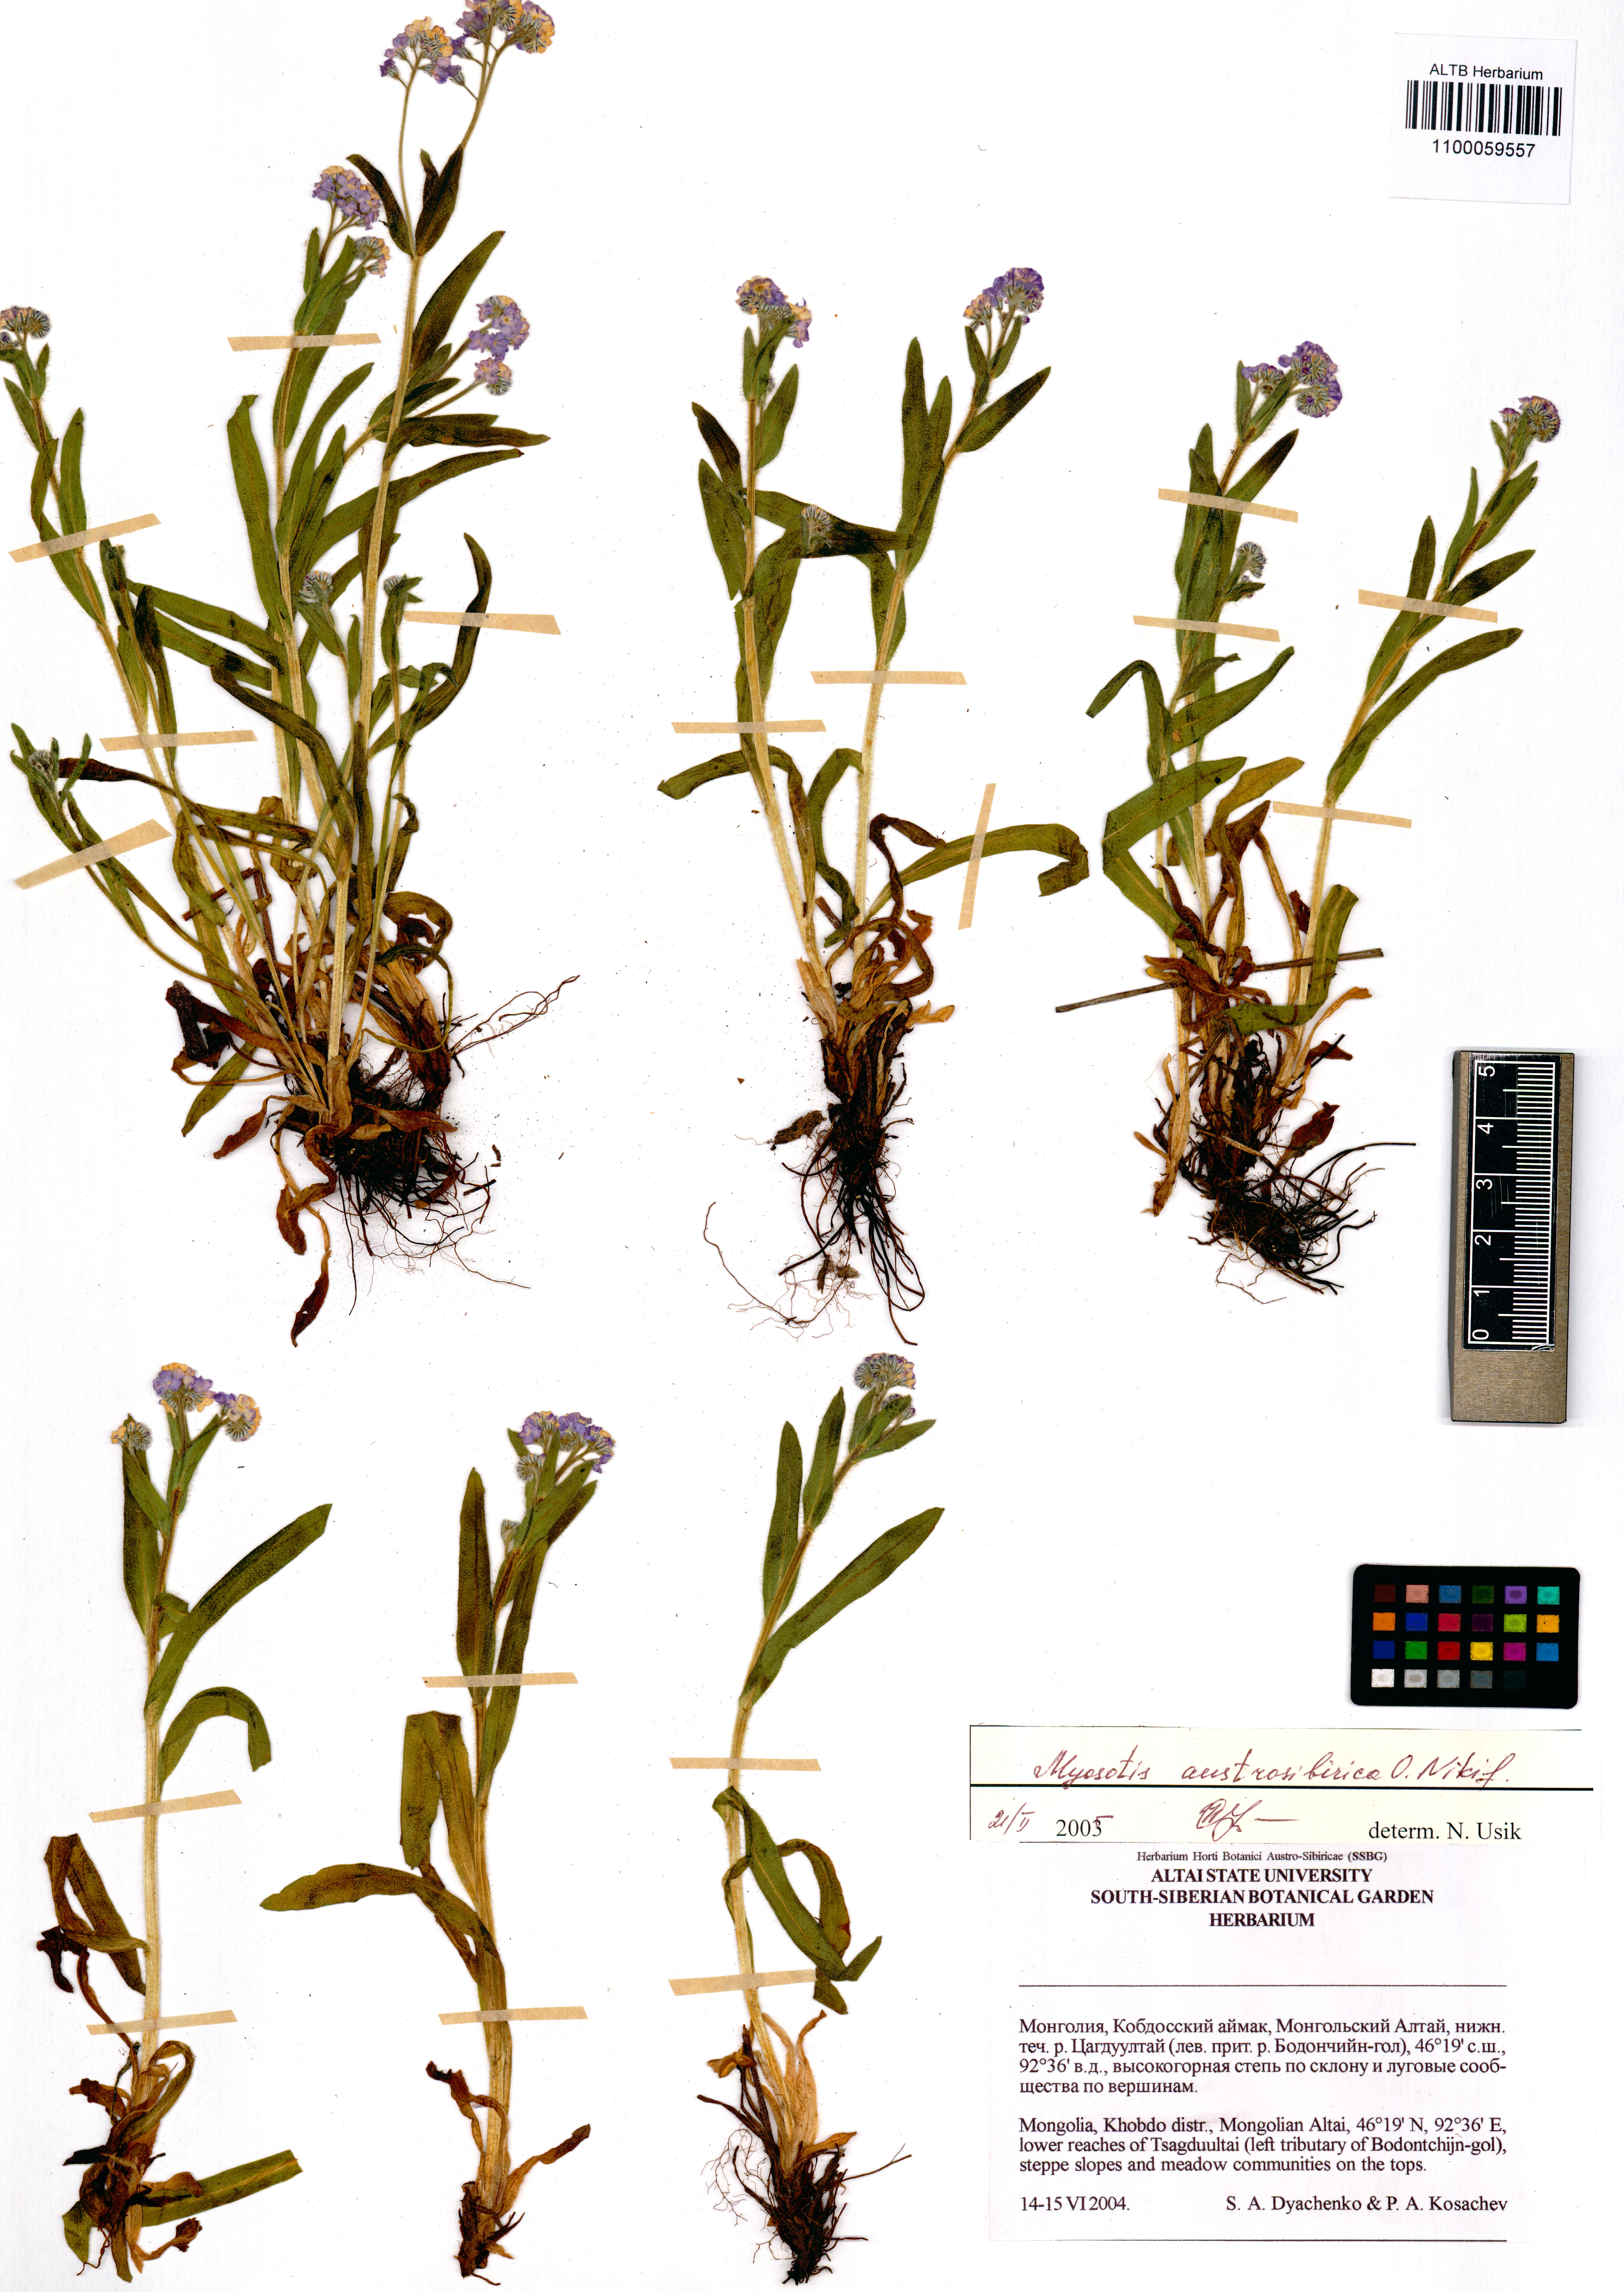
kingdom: Plantae
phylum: Tracheophyta
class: Magnoliopsida
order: Boraginales
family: Boraginaceae
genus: Myosotis
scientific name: Myosotis austrosibirica
